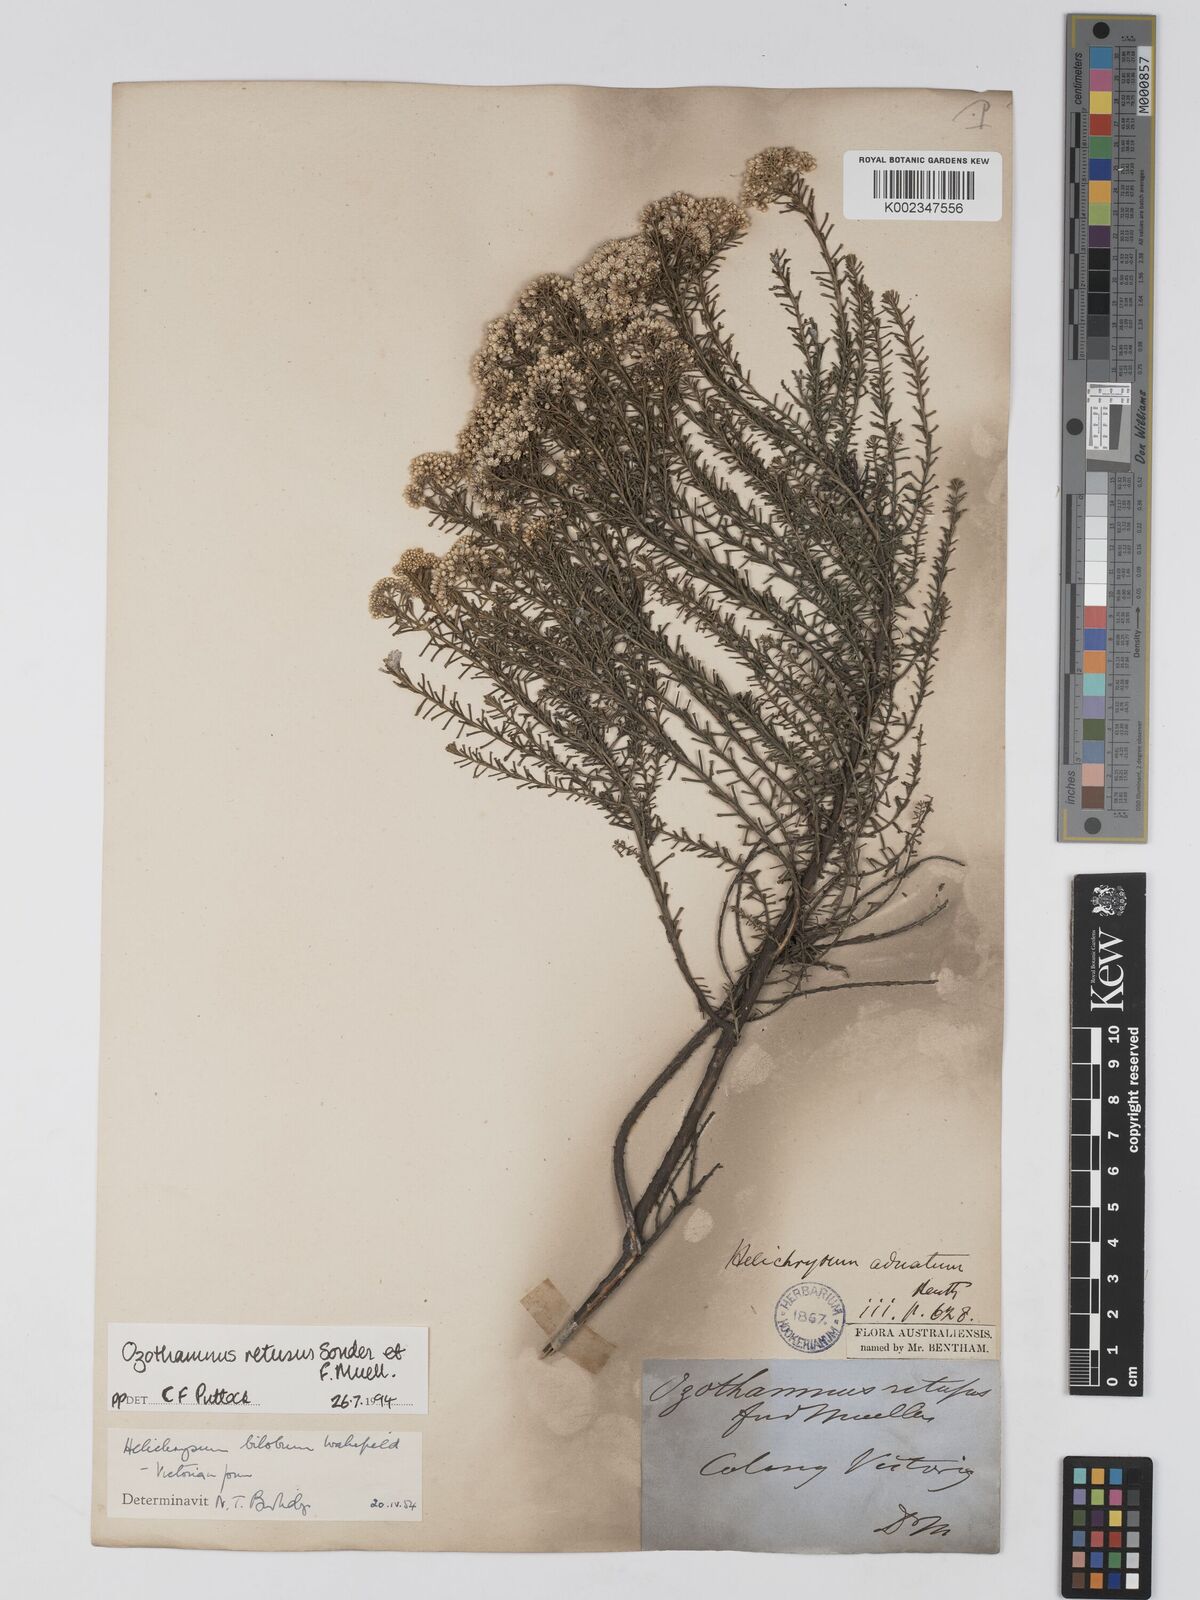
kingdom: Plantae
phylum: Tracheophyta
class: Magnoliopsida
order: Asterales
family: Asteraceae
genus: Ozothamnus
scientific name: Ozothamnus adnatus
